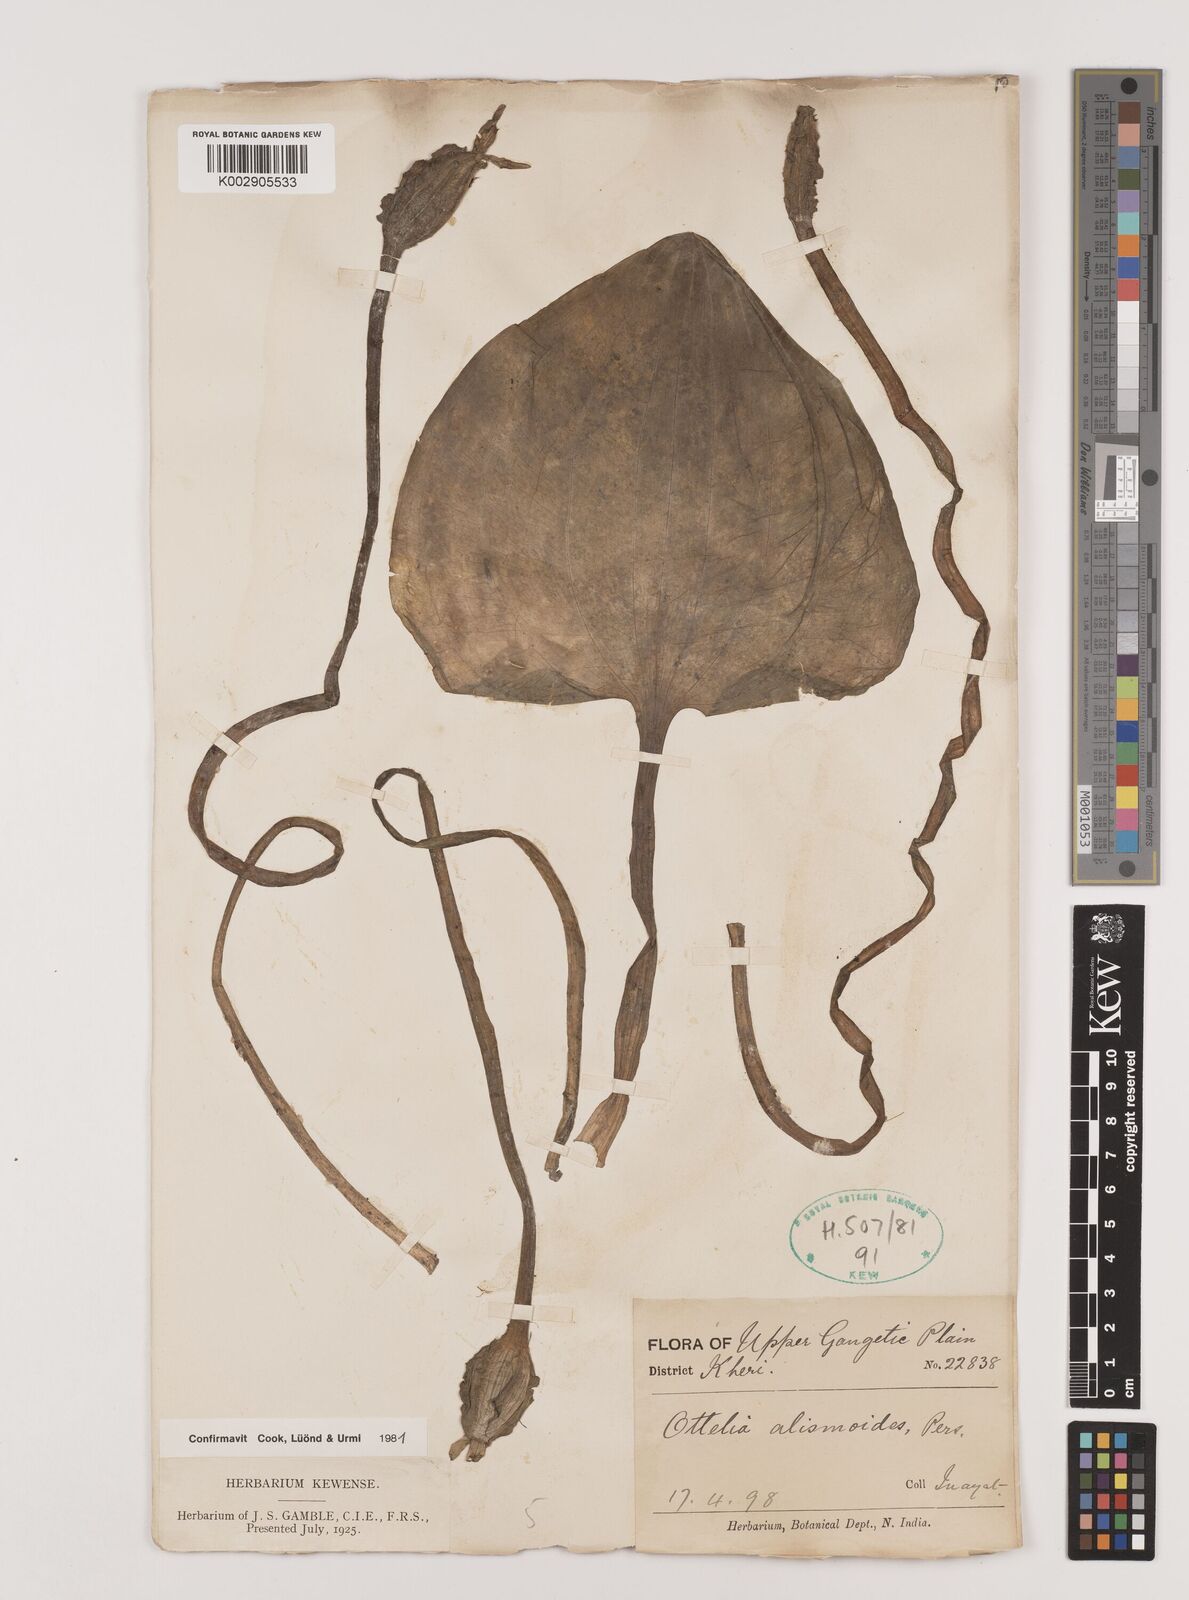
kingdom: Plantae
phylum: Tracheophyta
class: Liliopsida
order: Alismatales
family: Hydrocharitaceae
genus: Ottelia
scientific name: Ottelia alismoides
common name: Duck-lettuce
